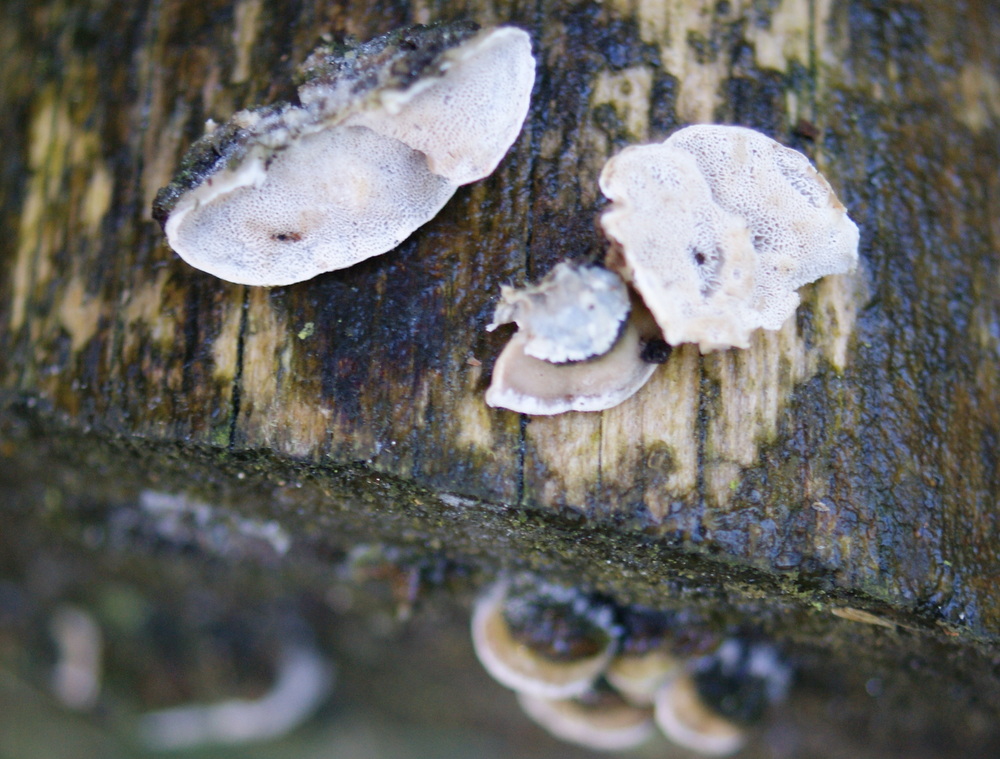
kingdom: Fungi
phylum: Basidiomycota
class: Agaricomycetes
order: Polyporales
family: Incrustoporiaceae
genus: Skeletocutis
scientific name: Skeletocutis carneogrisea
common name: rødgrå krystalporesvamp
